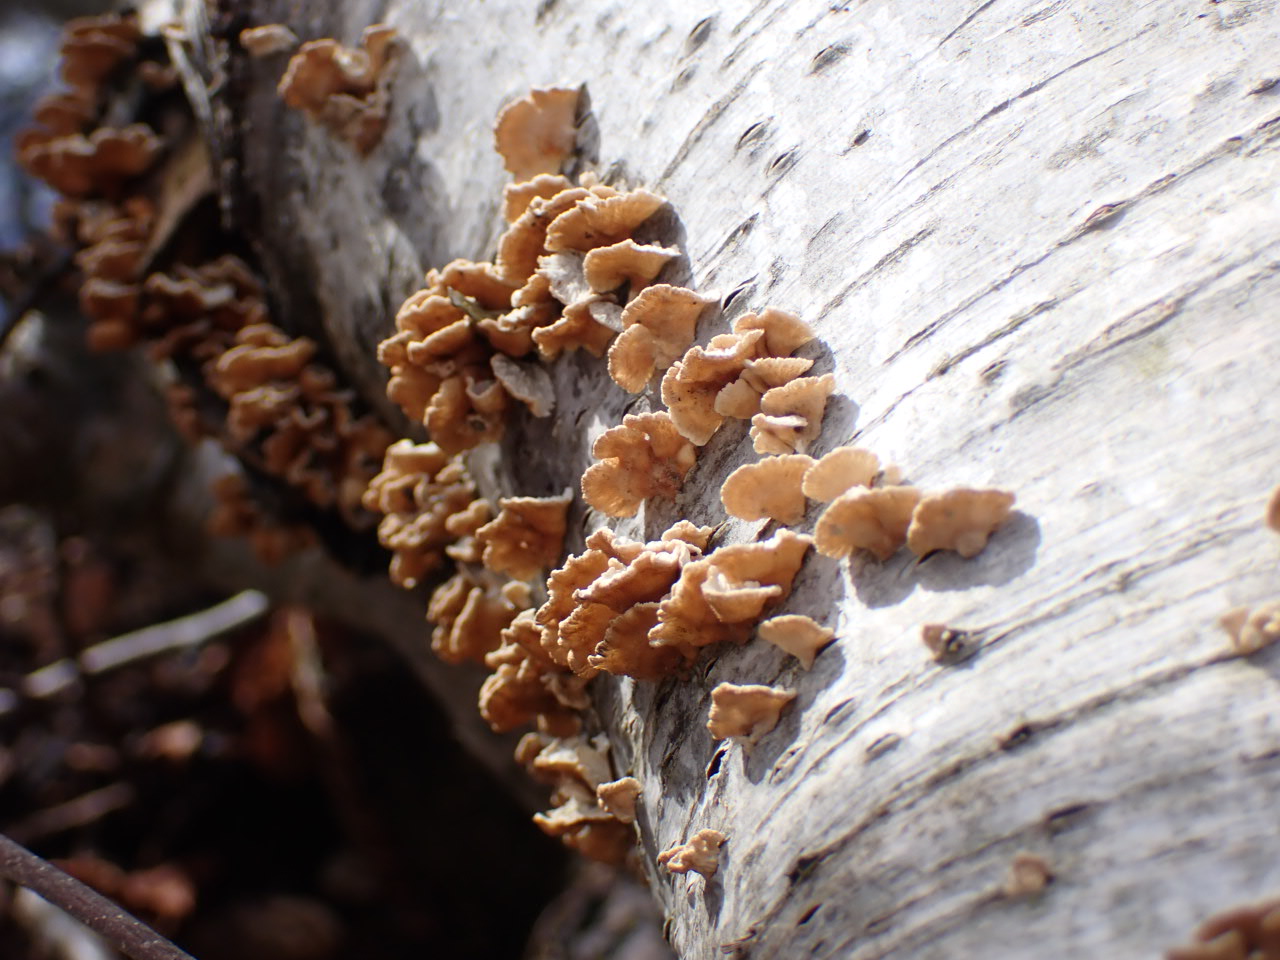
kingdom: Fungi
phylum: Basidiomycota
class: Agaricomycetes
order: Amylocorticiales
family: Amylocorticiaceae
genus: Plicaturopsis
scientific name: Plicaturopsis crispa
